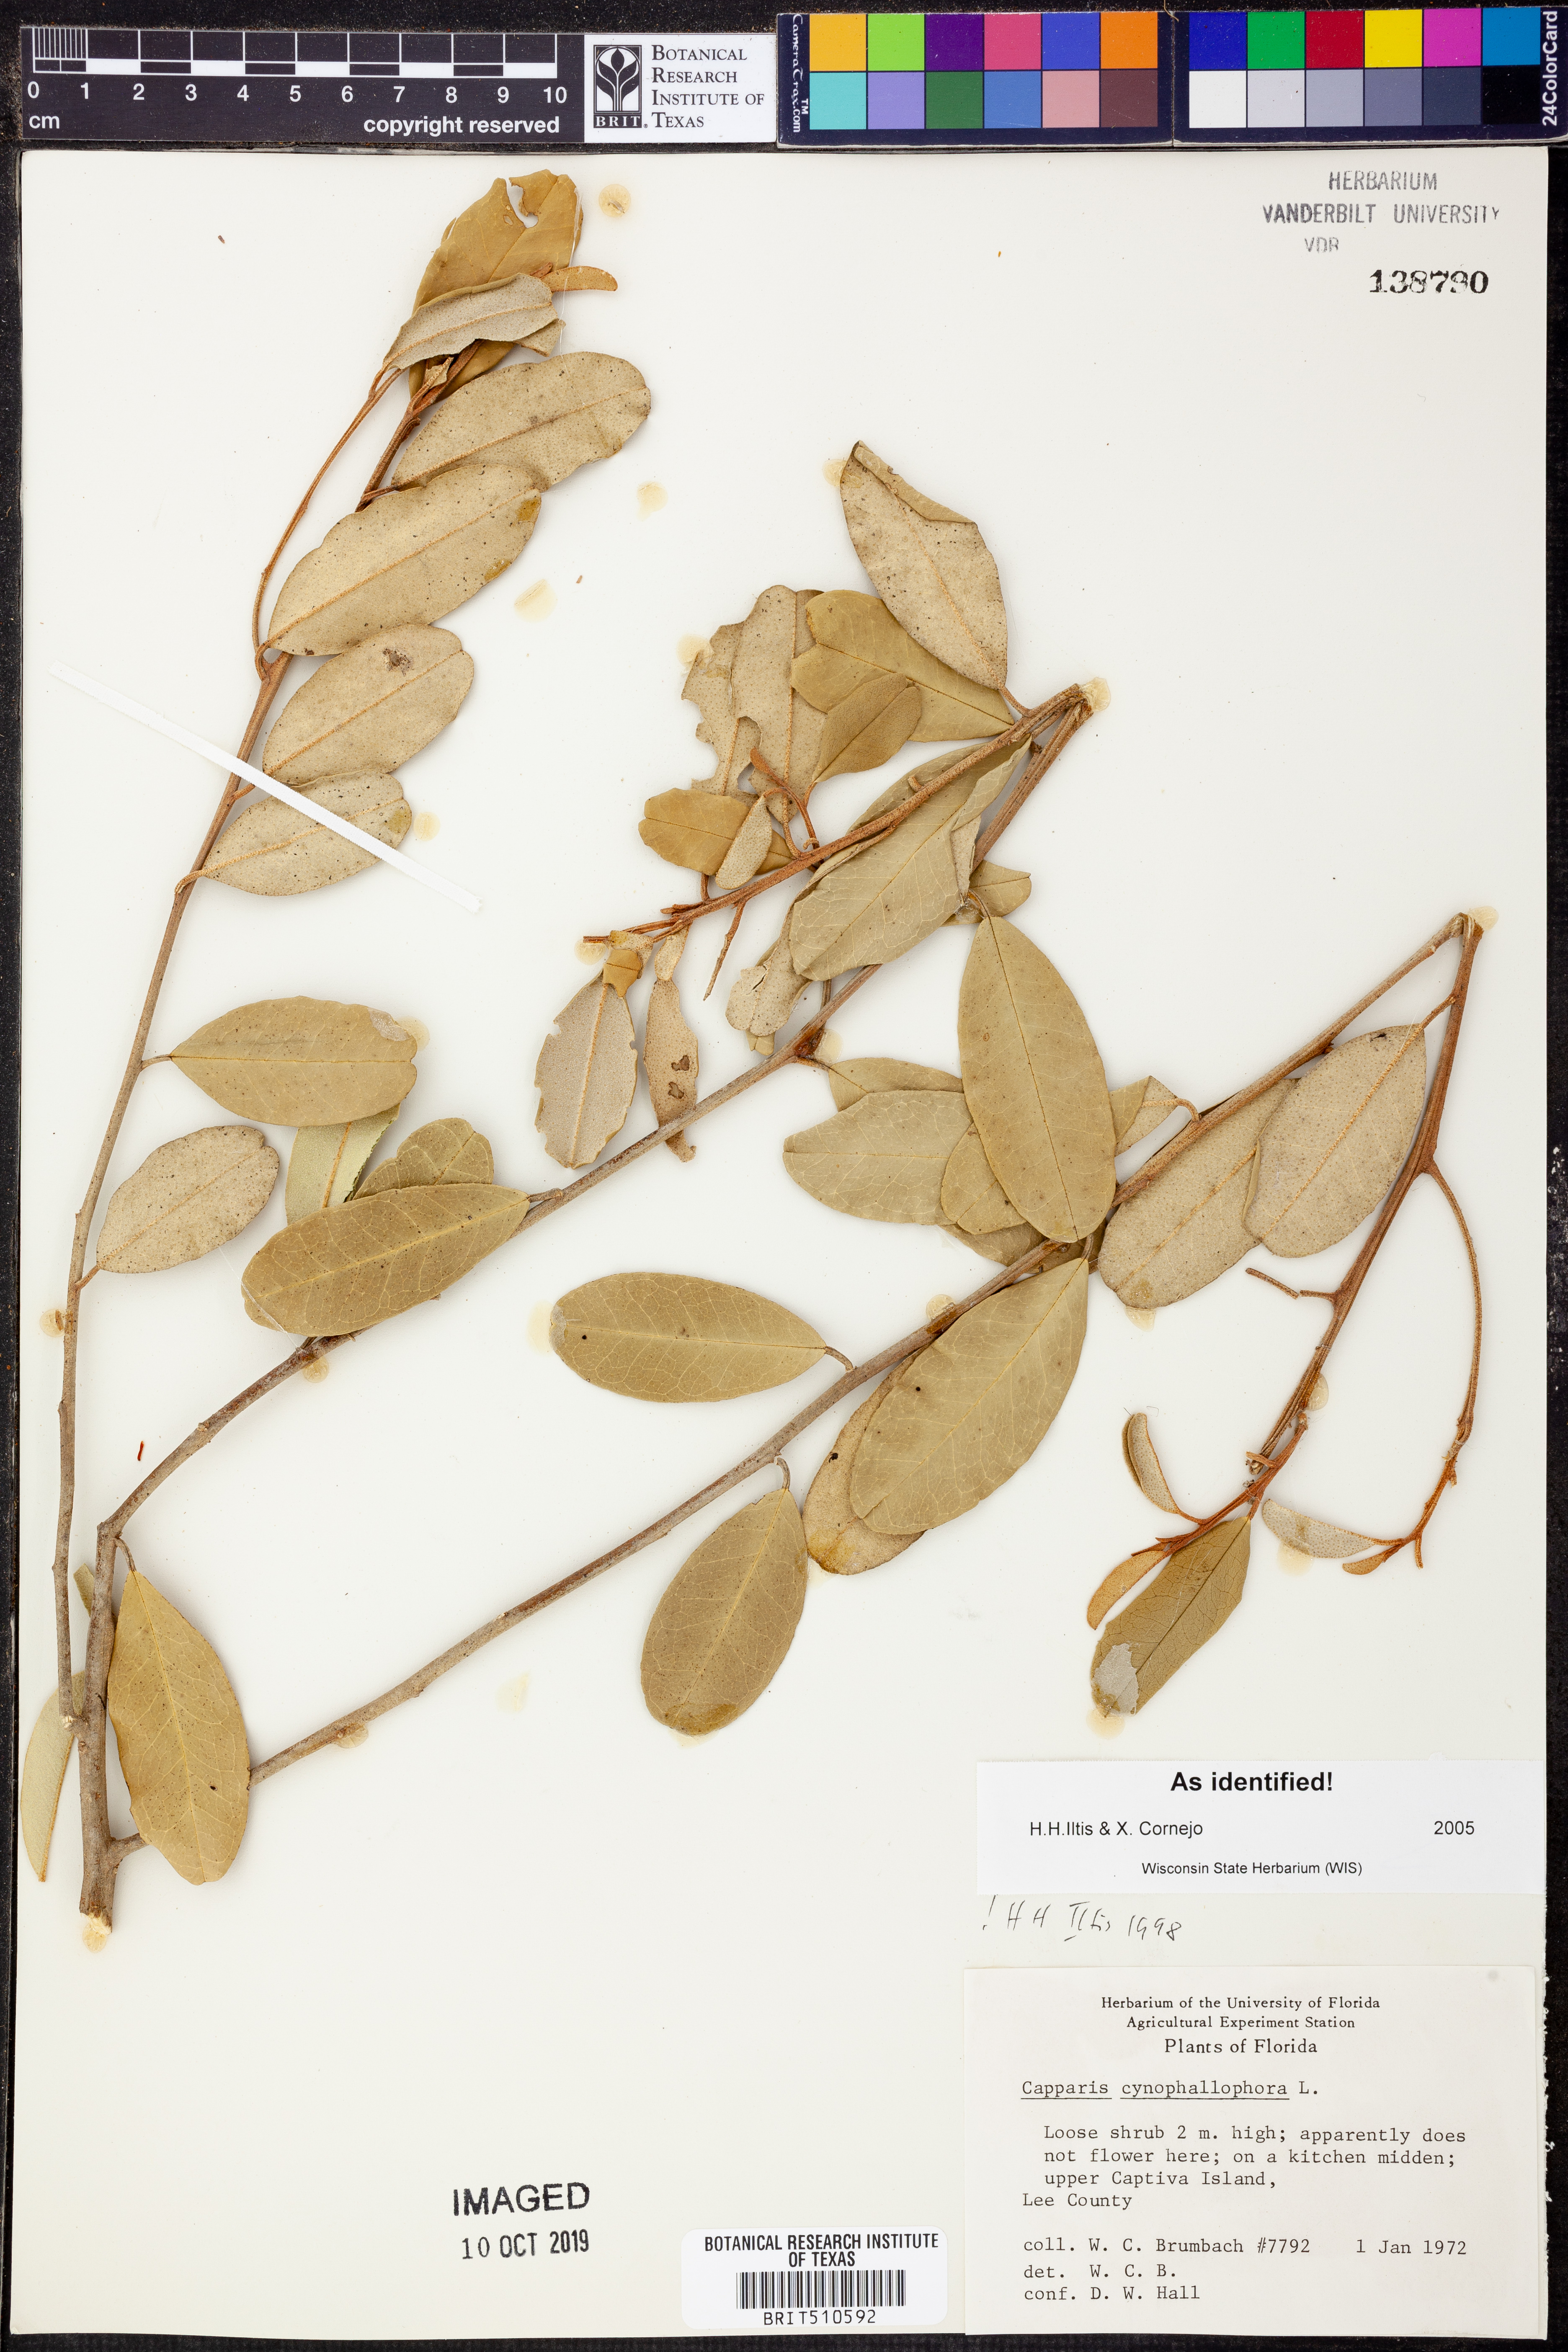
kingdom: Plantae
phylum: Tracheophyta
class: Magnoliopsida
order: Brassicales
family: Capparaceae
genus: Quadrella
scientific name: Quadrella cynophallophora
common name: Black willow
